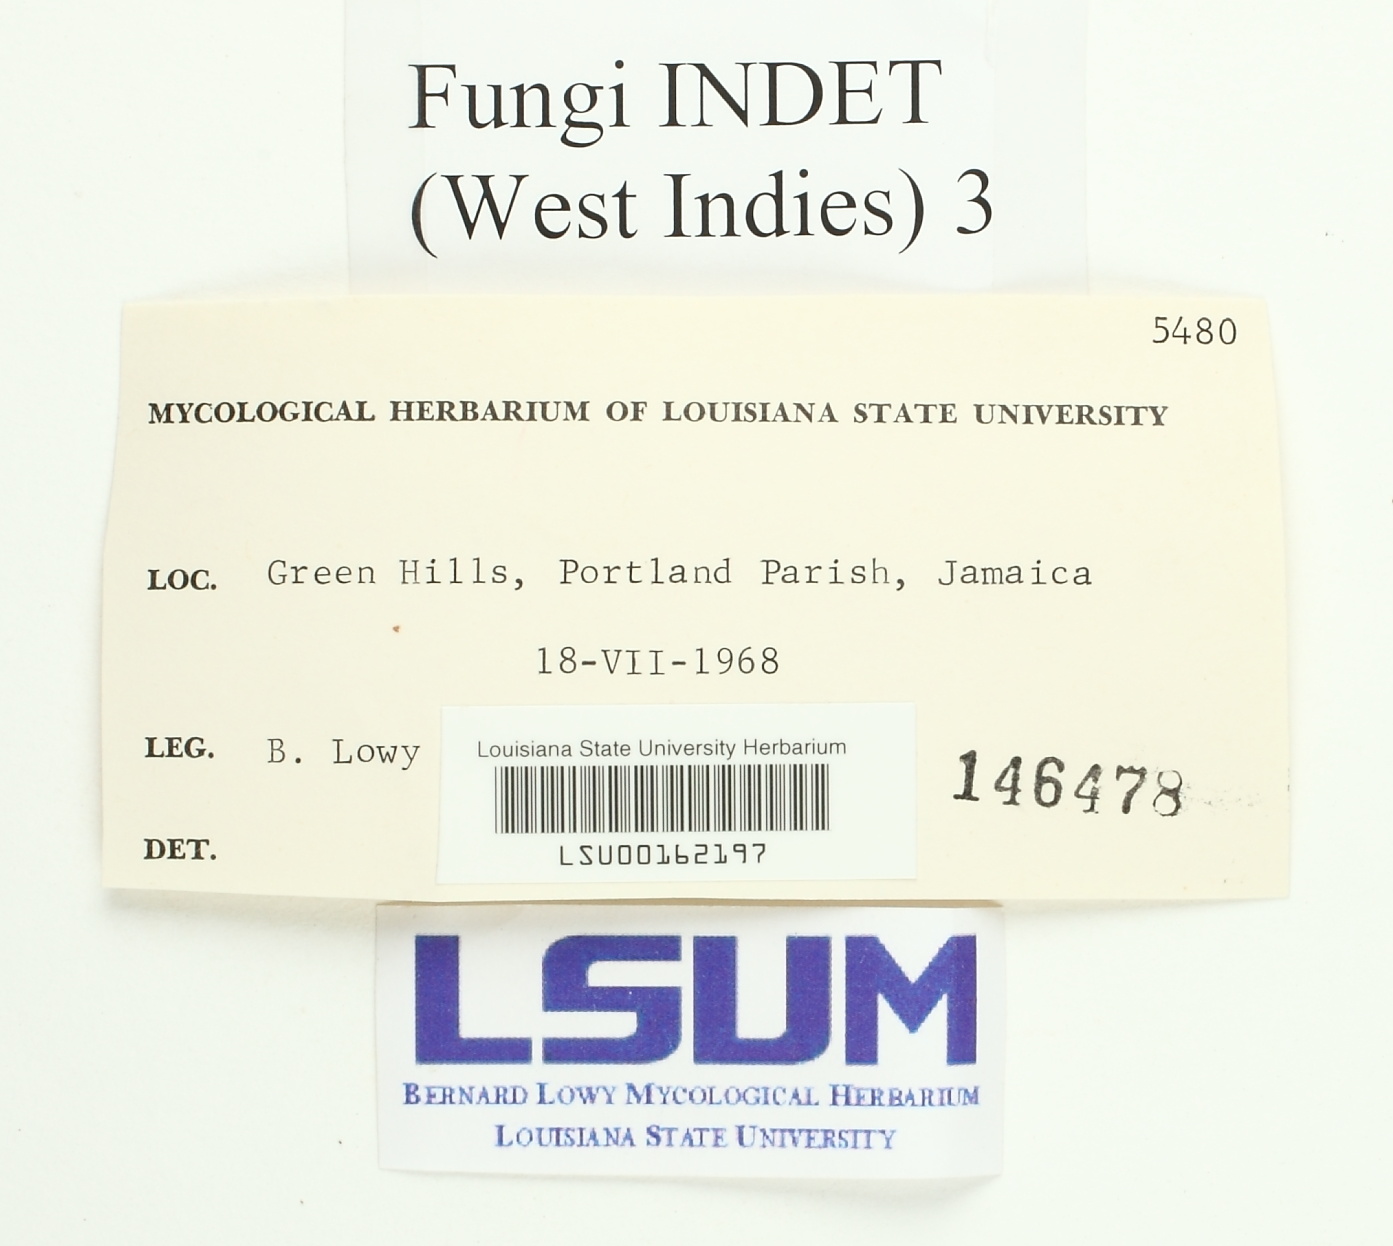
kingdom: Fungi
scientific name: Fungi
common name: Fungi
